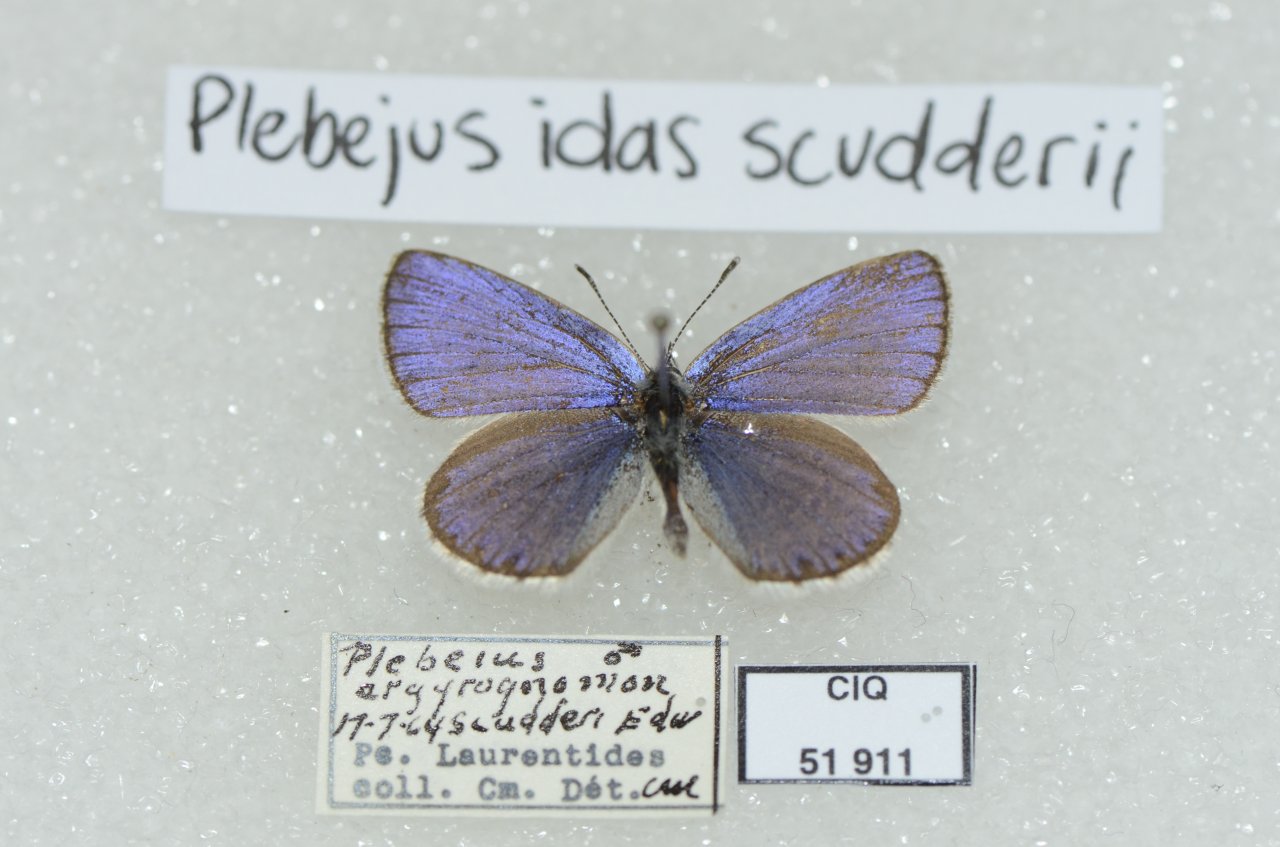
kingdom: Animalia
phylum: Arthropoda
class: Insecta
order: Lepidoptera
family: Lycaenidae
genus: Lycaeides
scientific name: Lycaeides idas
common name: Northern Blue
